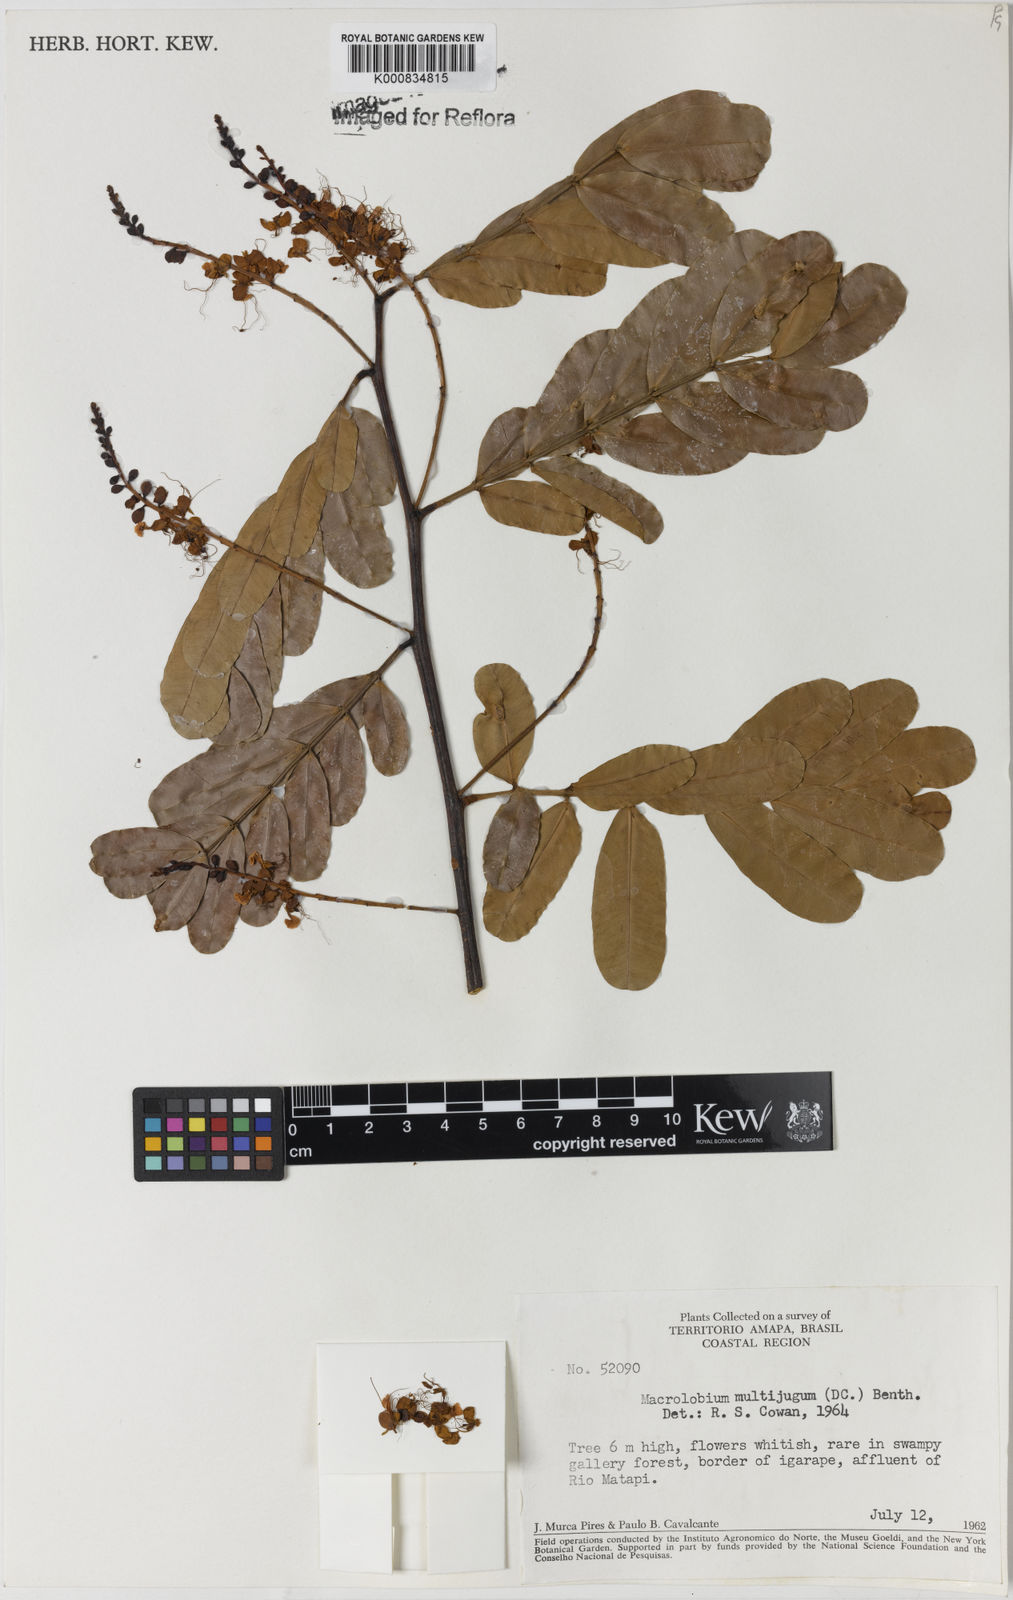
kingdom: Plantae
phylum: Tracheophyta
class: Magnoliopsida
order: Fabales
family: Fabaceae
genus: Macrolobium
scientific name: Macrolobium multijugum
